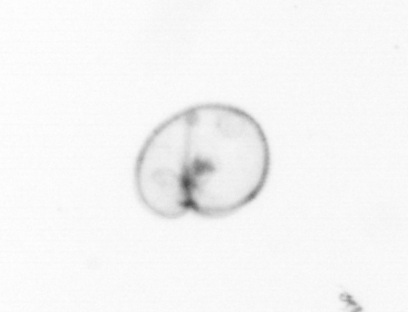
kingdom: Chromista
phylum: Myzozoa
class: Dinophyceae
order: Noctilucales
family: Noctilucaceae
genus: Noctiluca
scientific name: Noctiluca scintillans
